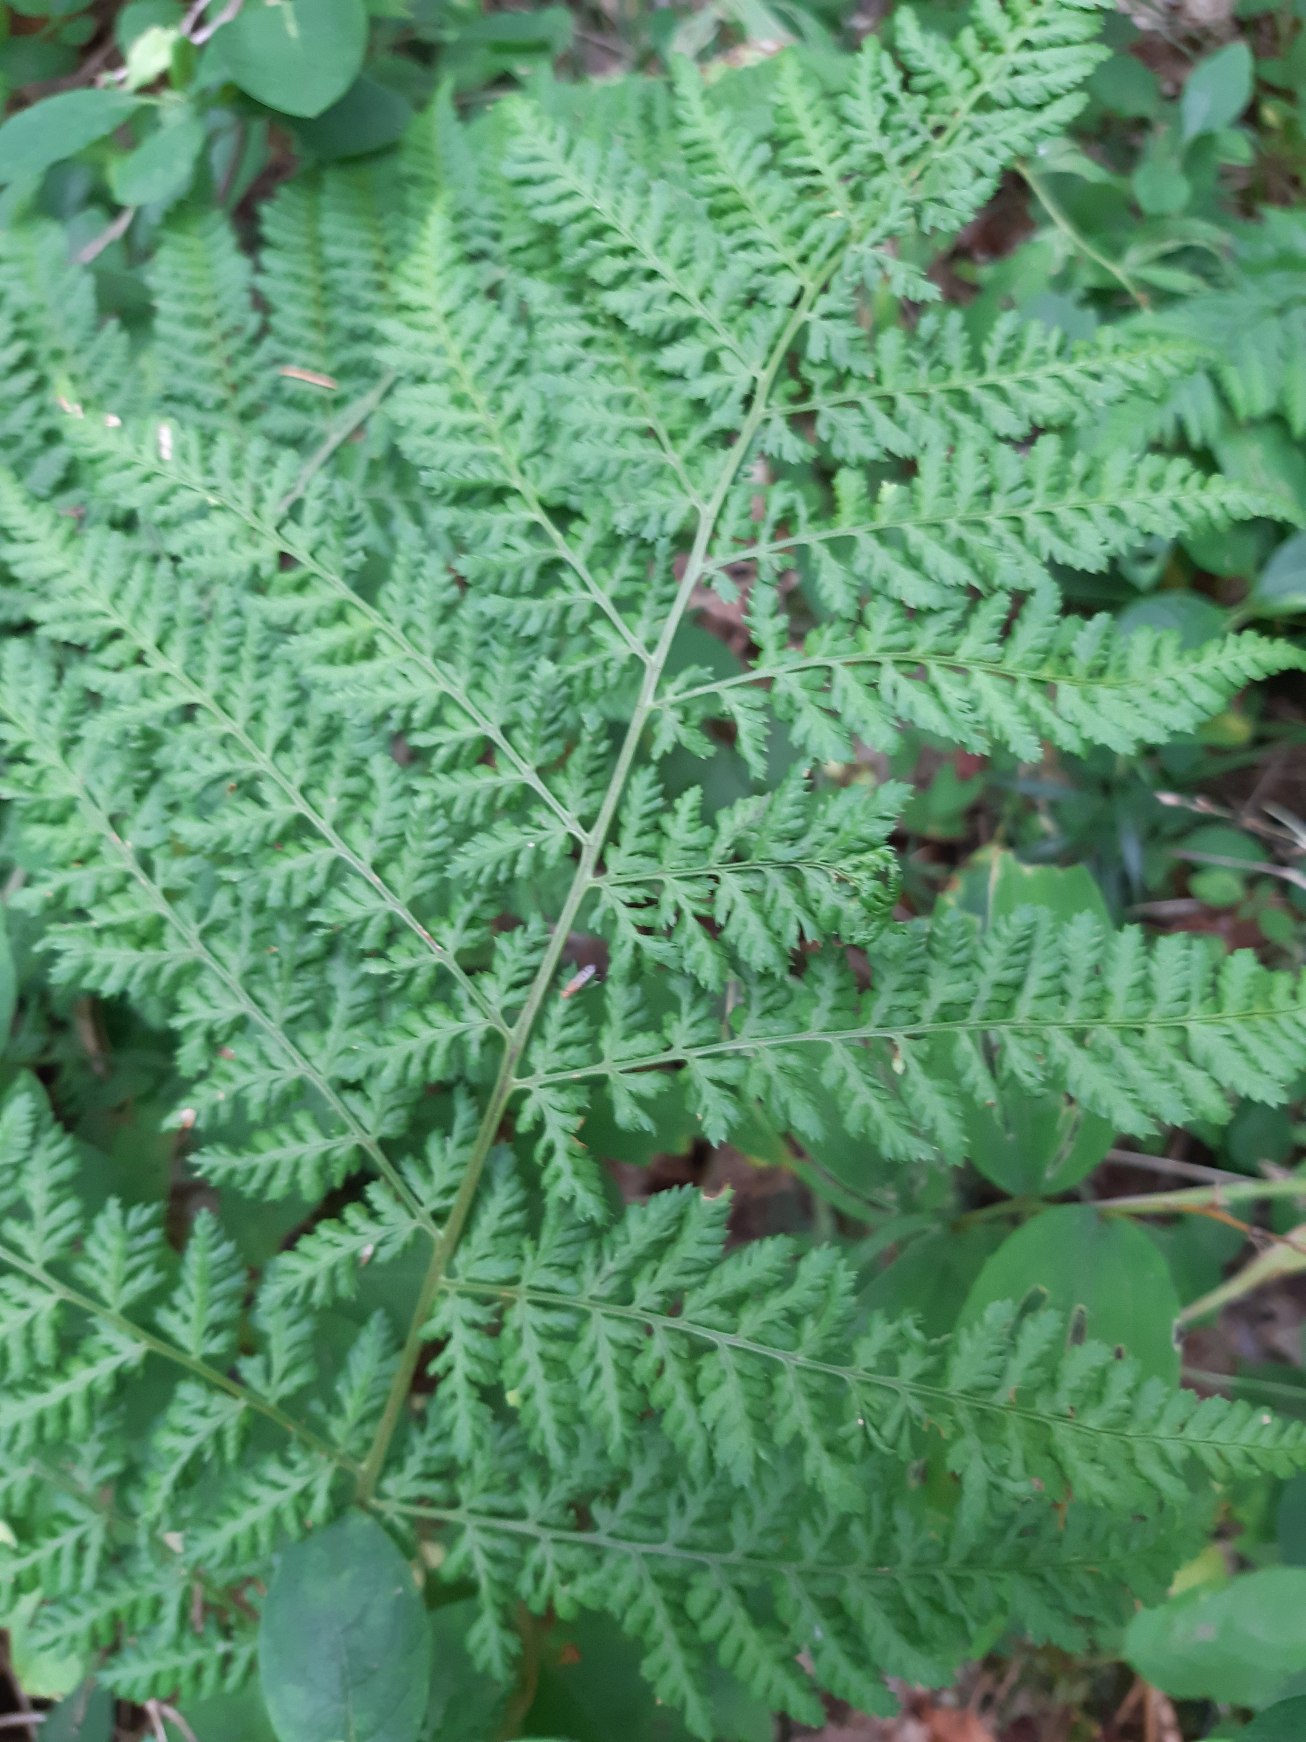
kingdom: Plantae
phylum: Tracheophyta
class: Polypodiopsida
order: Polypodiales
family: Dryopteridaceae
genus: Dryopteris
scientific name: Dryopteris dilatata
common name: Bredbladet mangeløv
